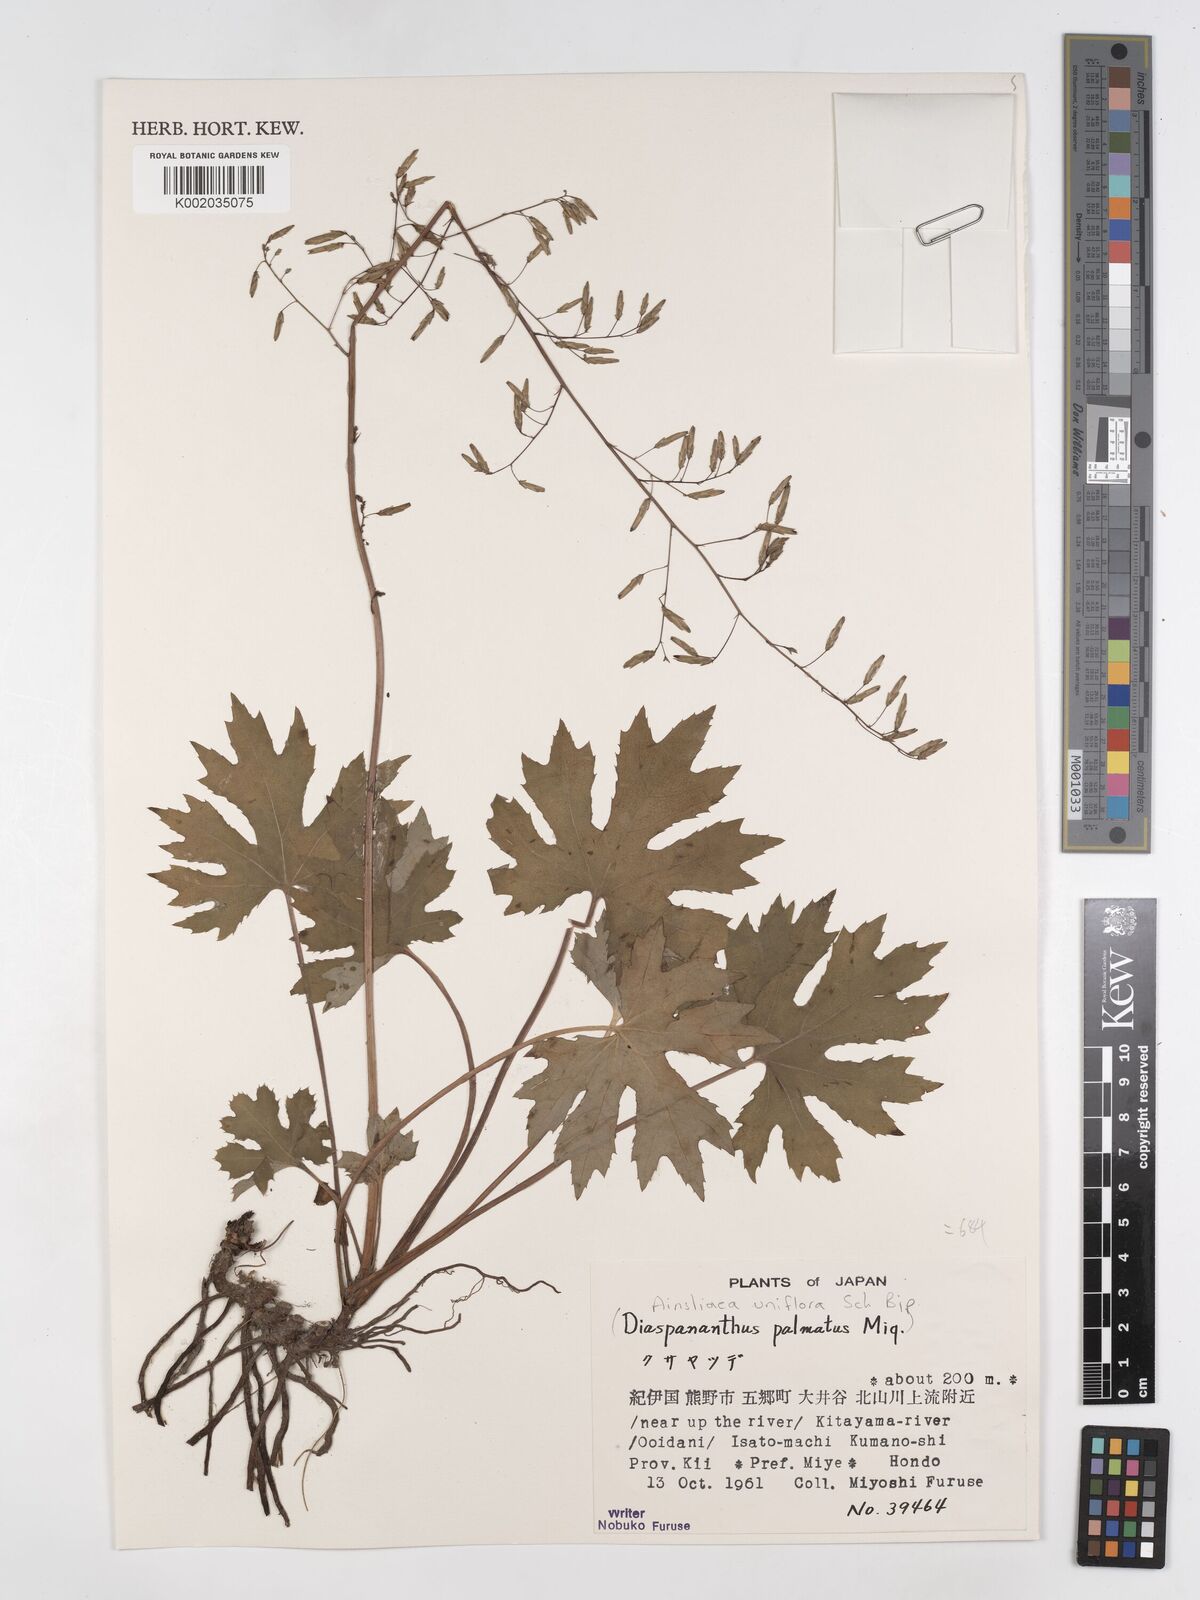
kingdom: Plantae
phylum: Tracheophyta
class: Magnoliopsida
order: Asterales
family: Asteraceae
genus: Ainsliaea
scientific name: Ainsliaea uniflora
